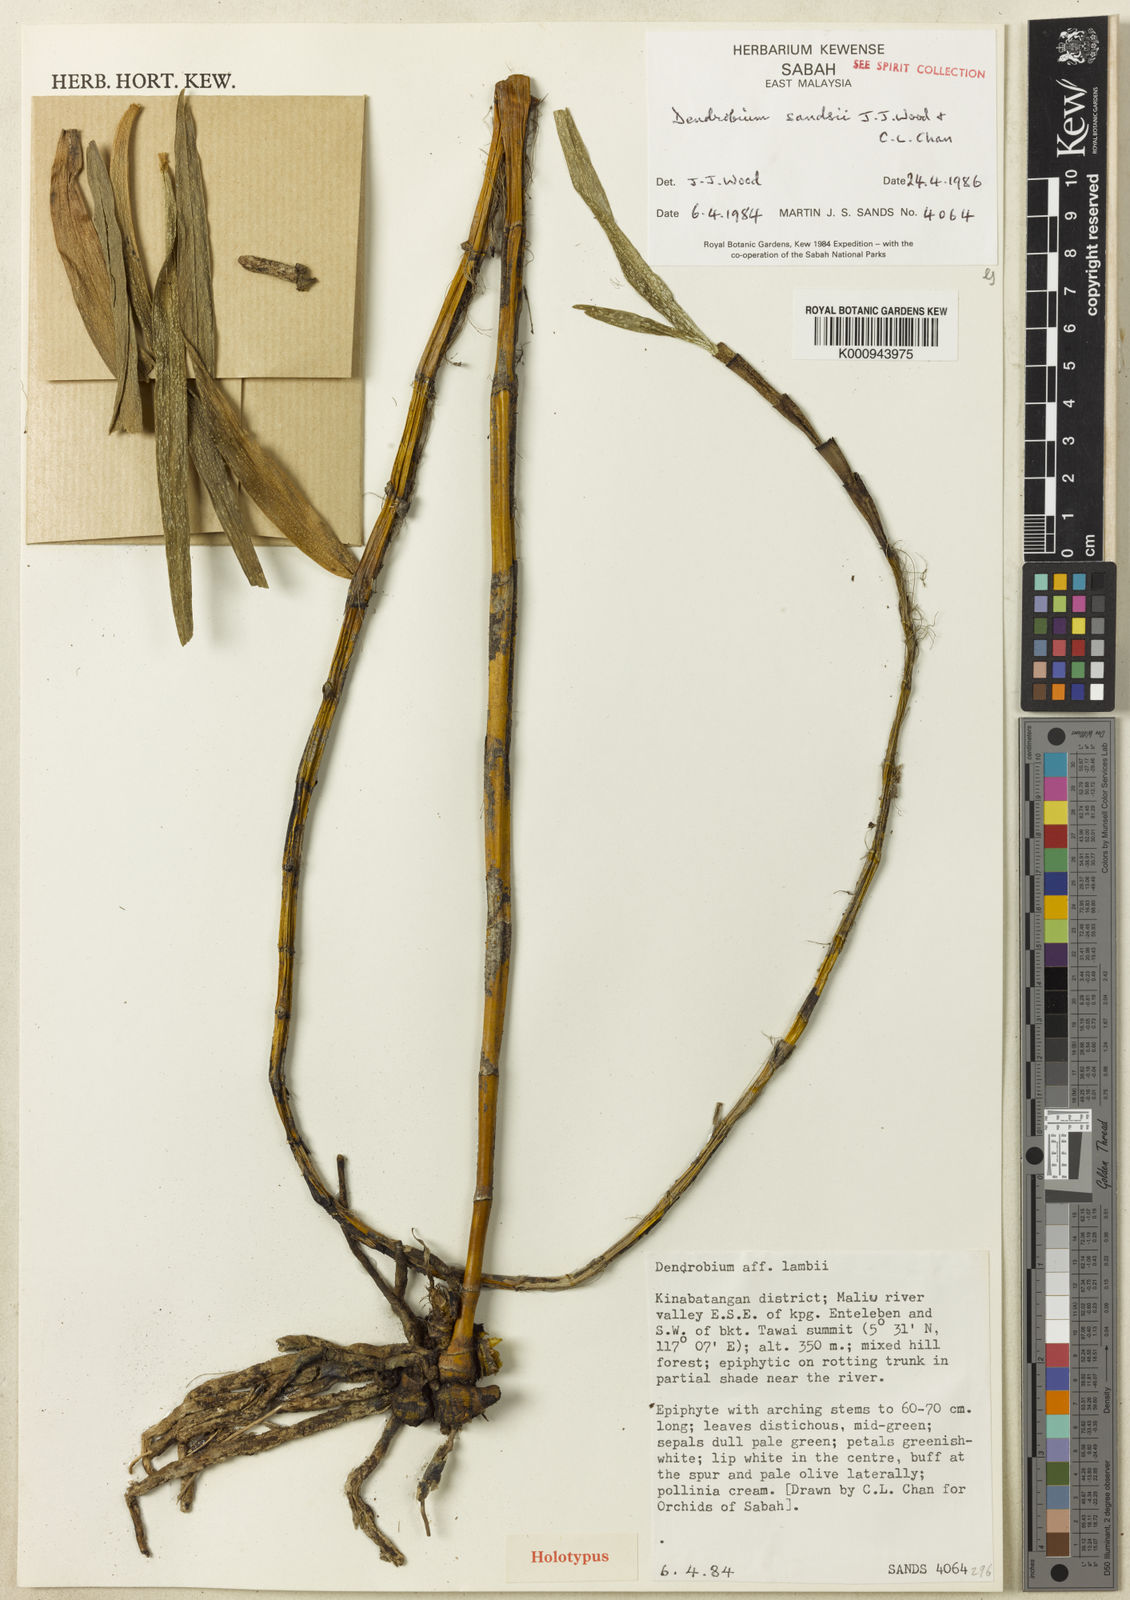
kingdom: Plantae
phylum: Tracheophyta
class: Liliopsida
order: Asparagales
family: Orchidaceae
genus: Dendrobium
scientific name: Dendrobium sandsii
